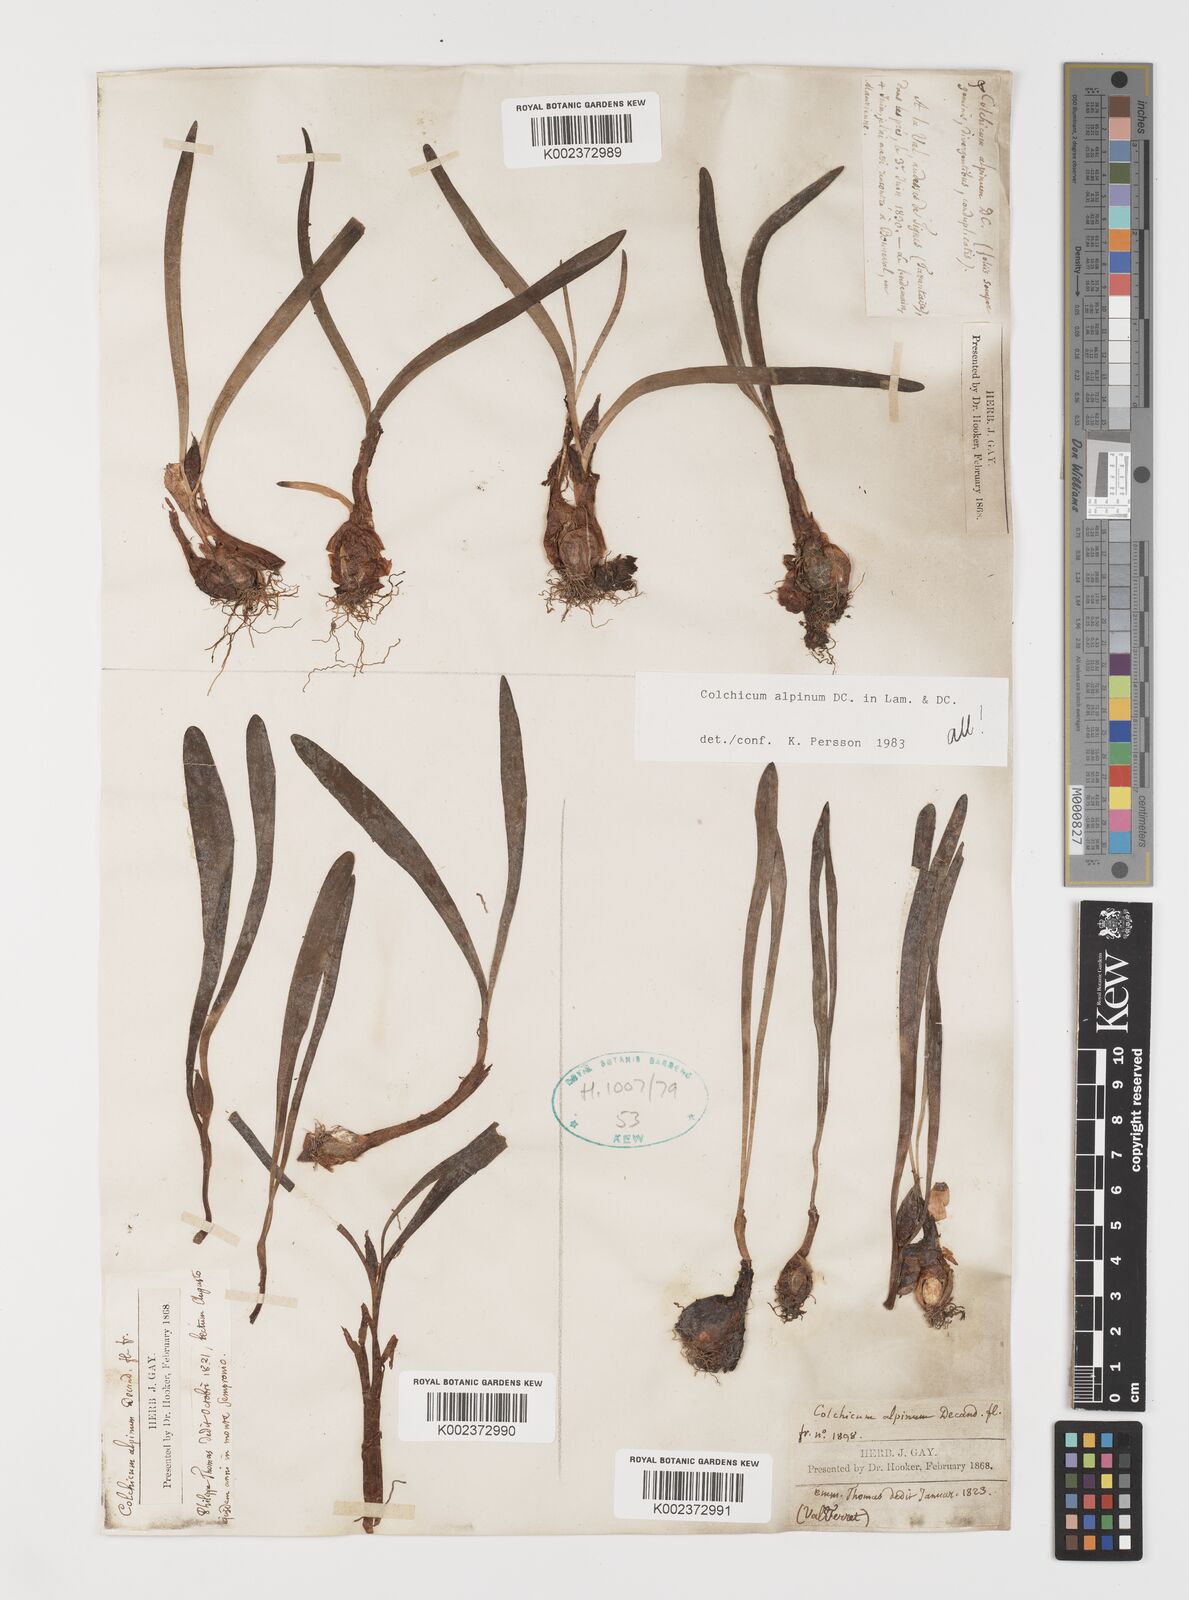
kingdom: Plantae
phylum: Tracheophyta
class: Liliopsida
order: Liliales
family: Colchicaceae
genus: Colchicum
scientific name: Colchicum alpinum
